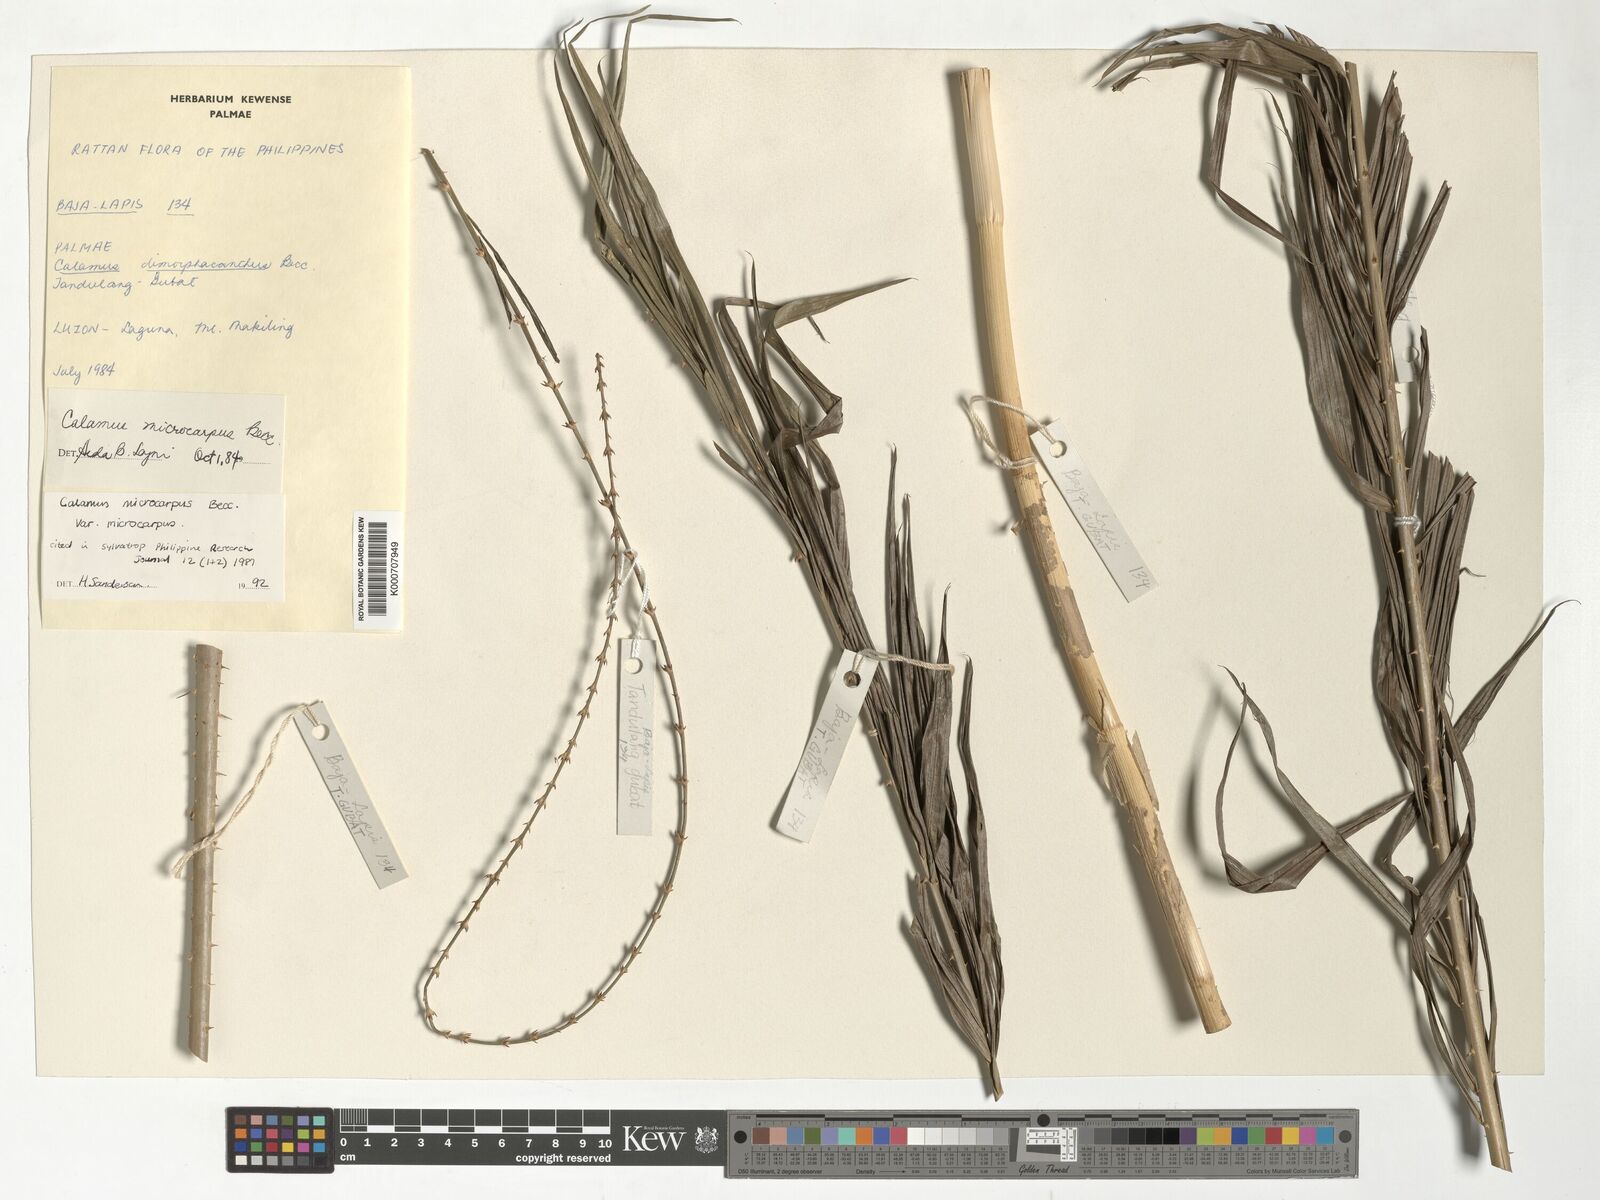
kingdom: Plantae
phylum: Tracheophyta
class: Liliopsida
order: Arecales
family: Arecaceae
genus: Calamus
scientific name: Calamus siphonospathus
